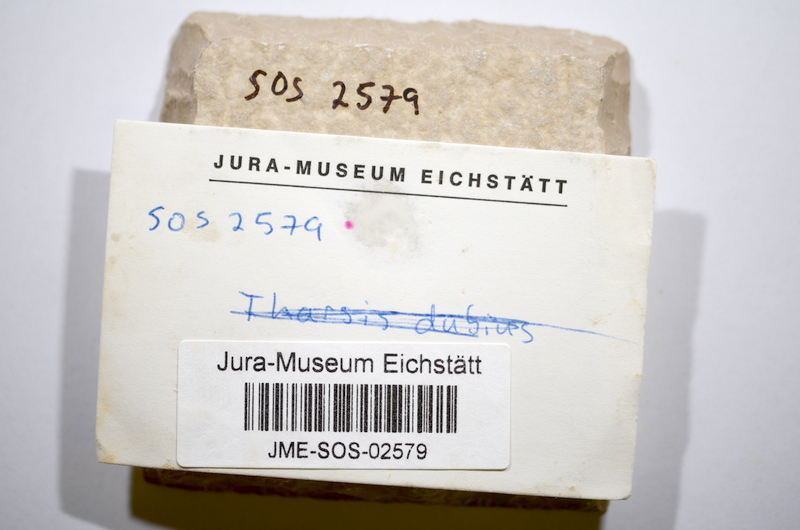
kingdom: Animalia
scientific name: Animalia
